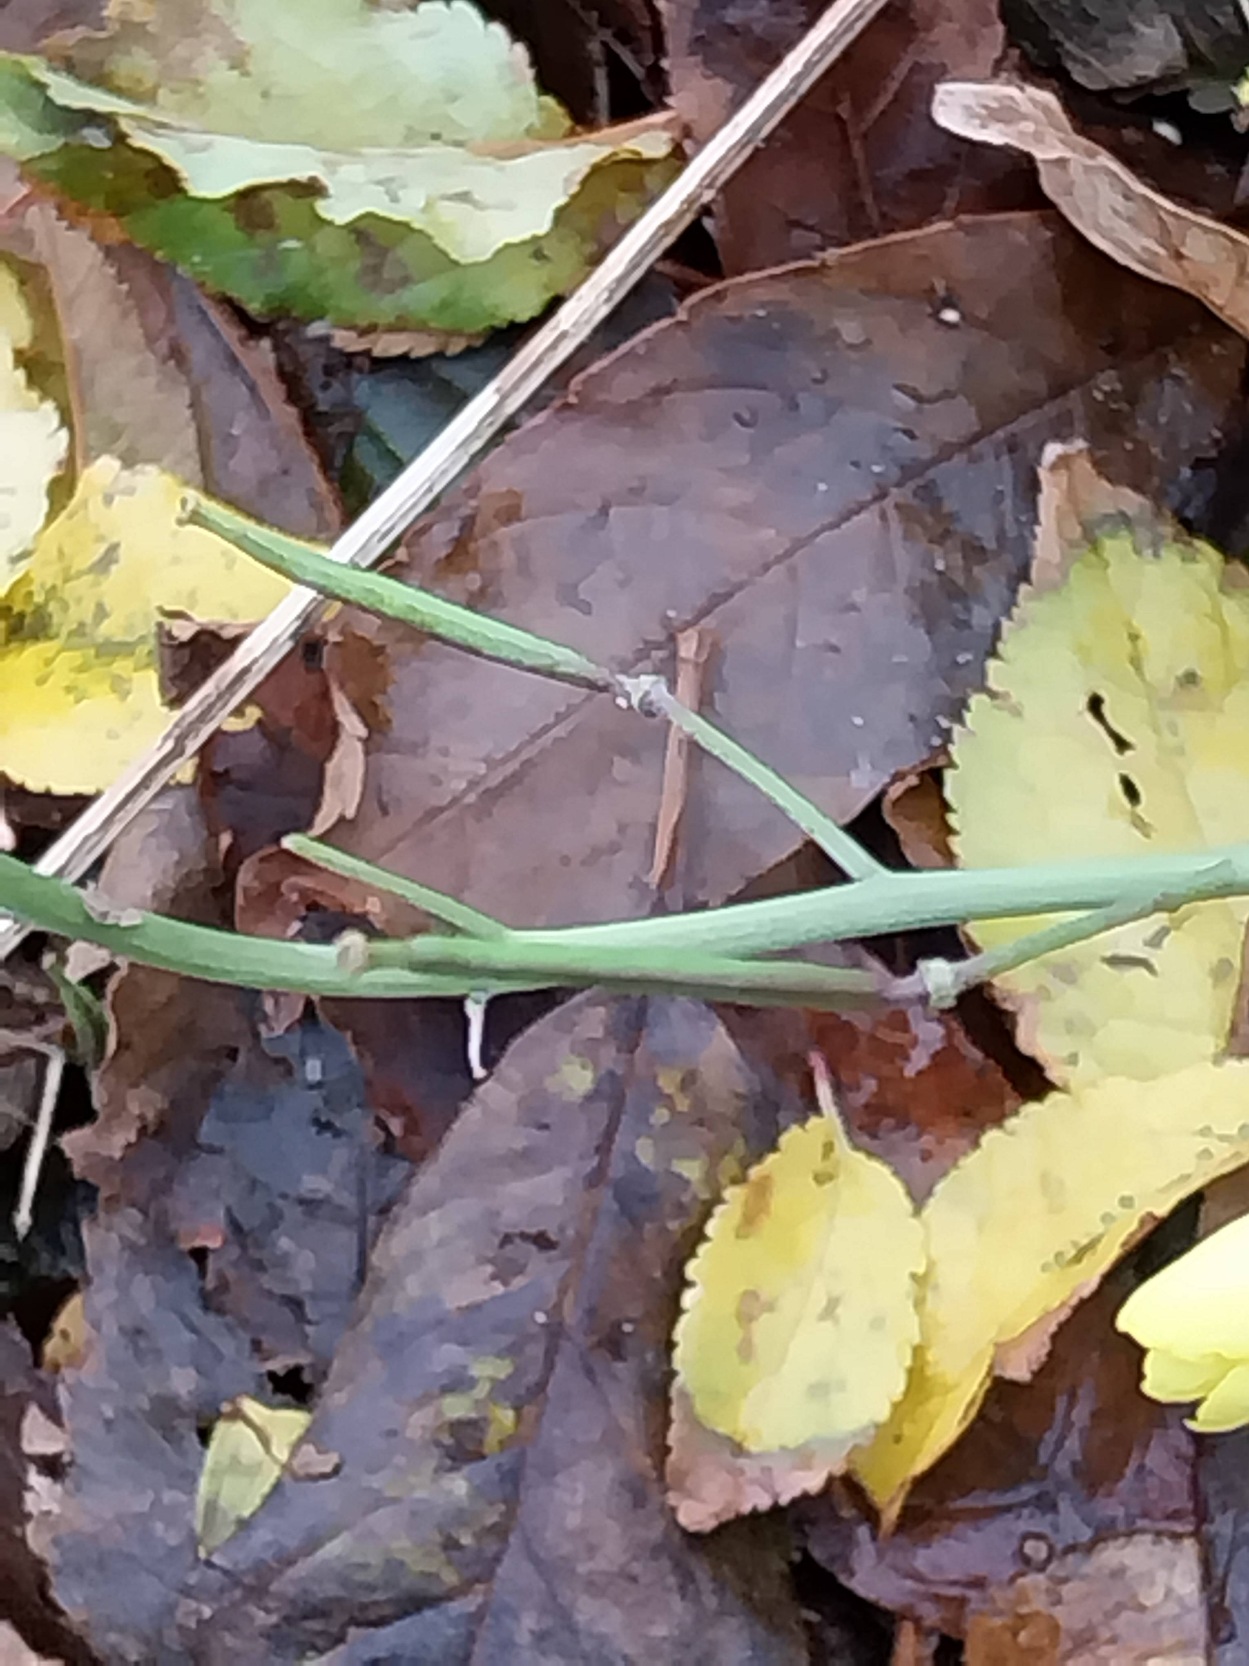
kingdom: Plantae
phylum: Tracheophyta
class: Magnoliopsida
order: Brassicales
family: Brassicaceae
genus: Diplotaxis
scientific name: Diplotaxis tenuifolia
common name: Sandsennep
